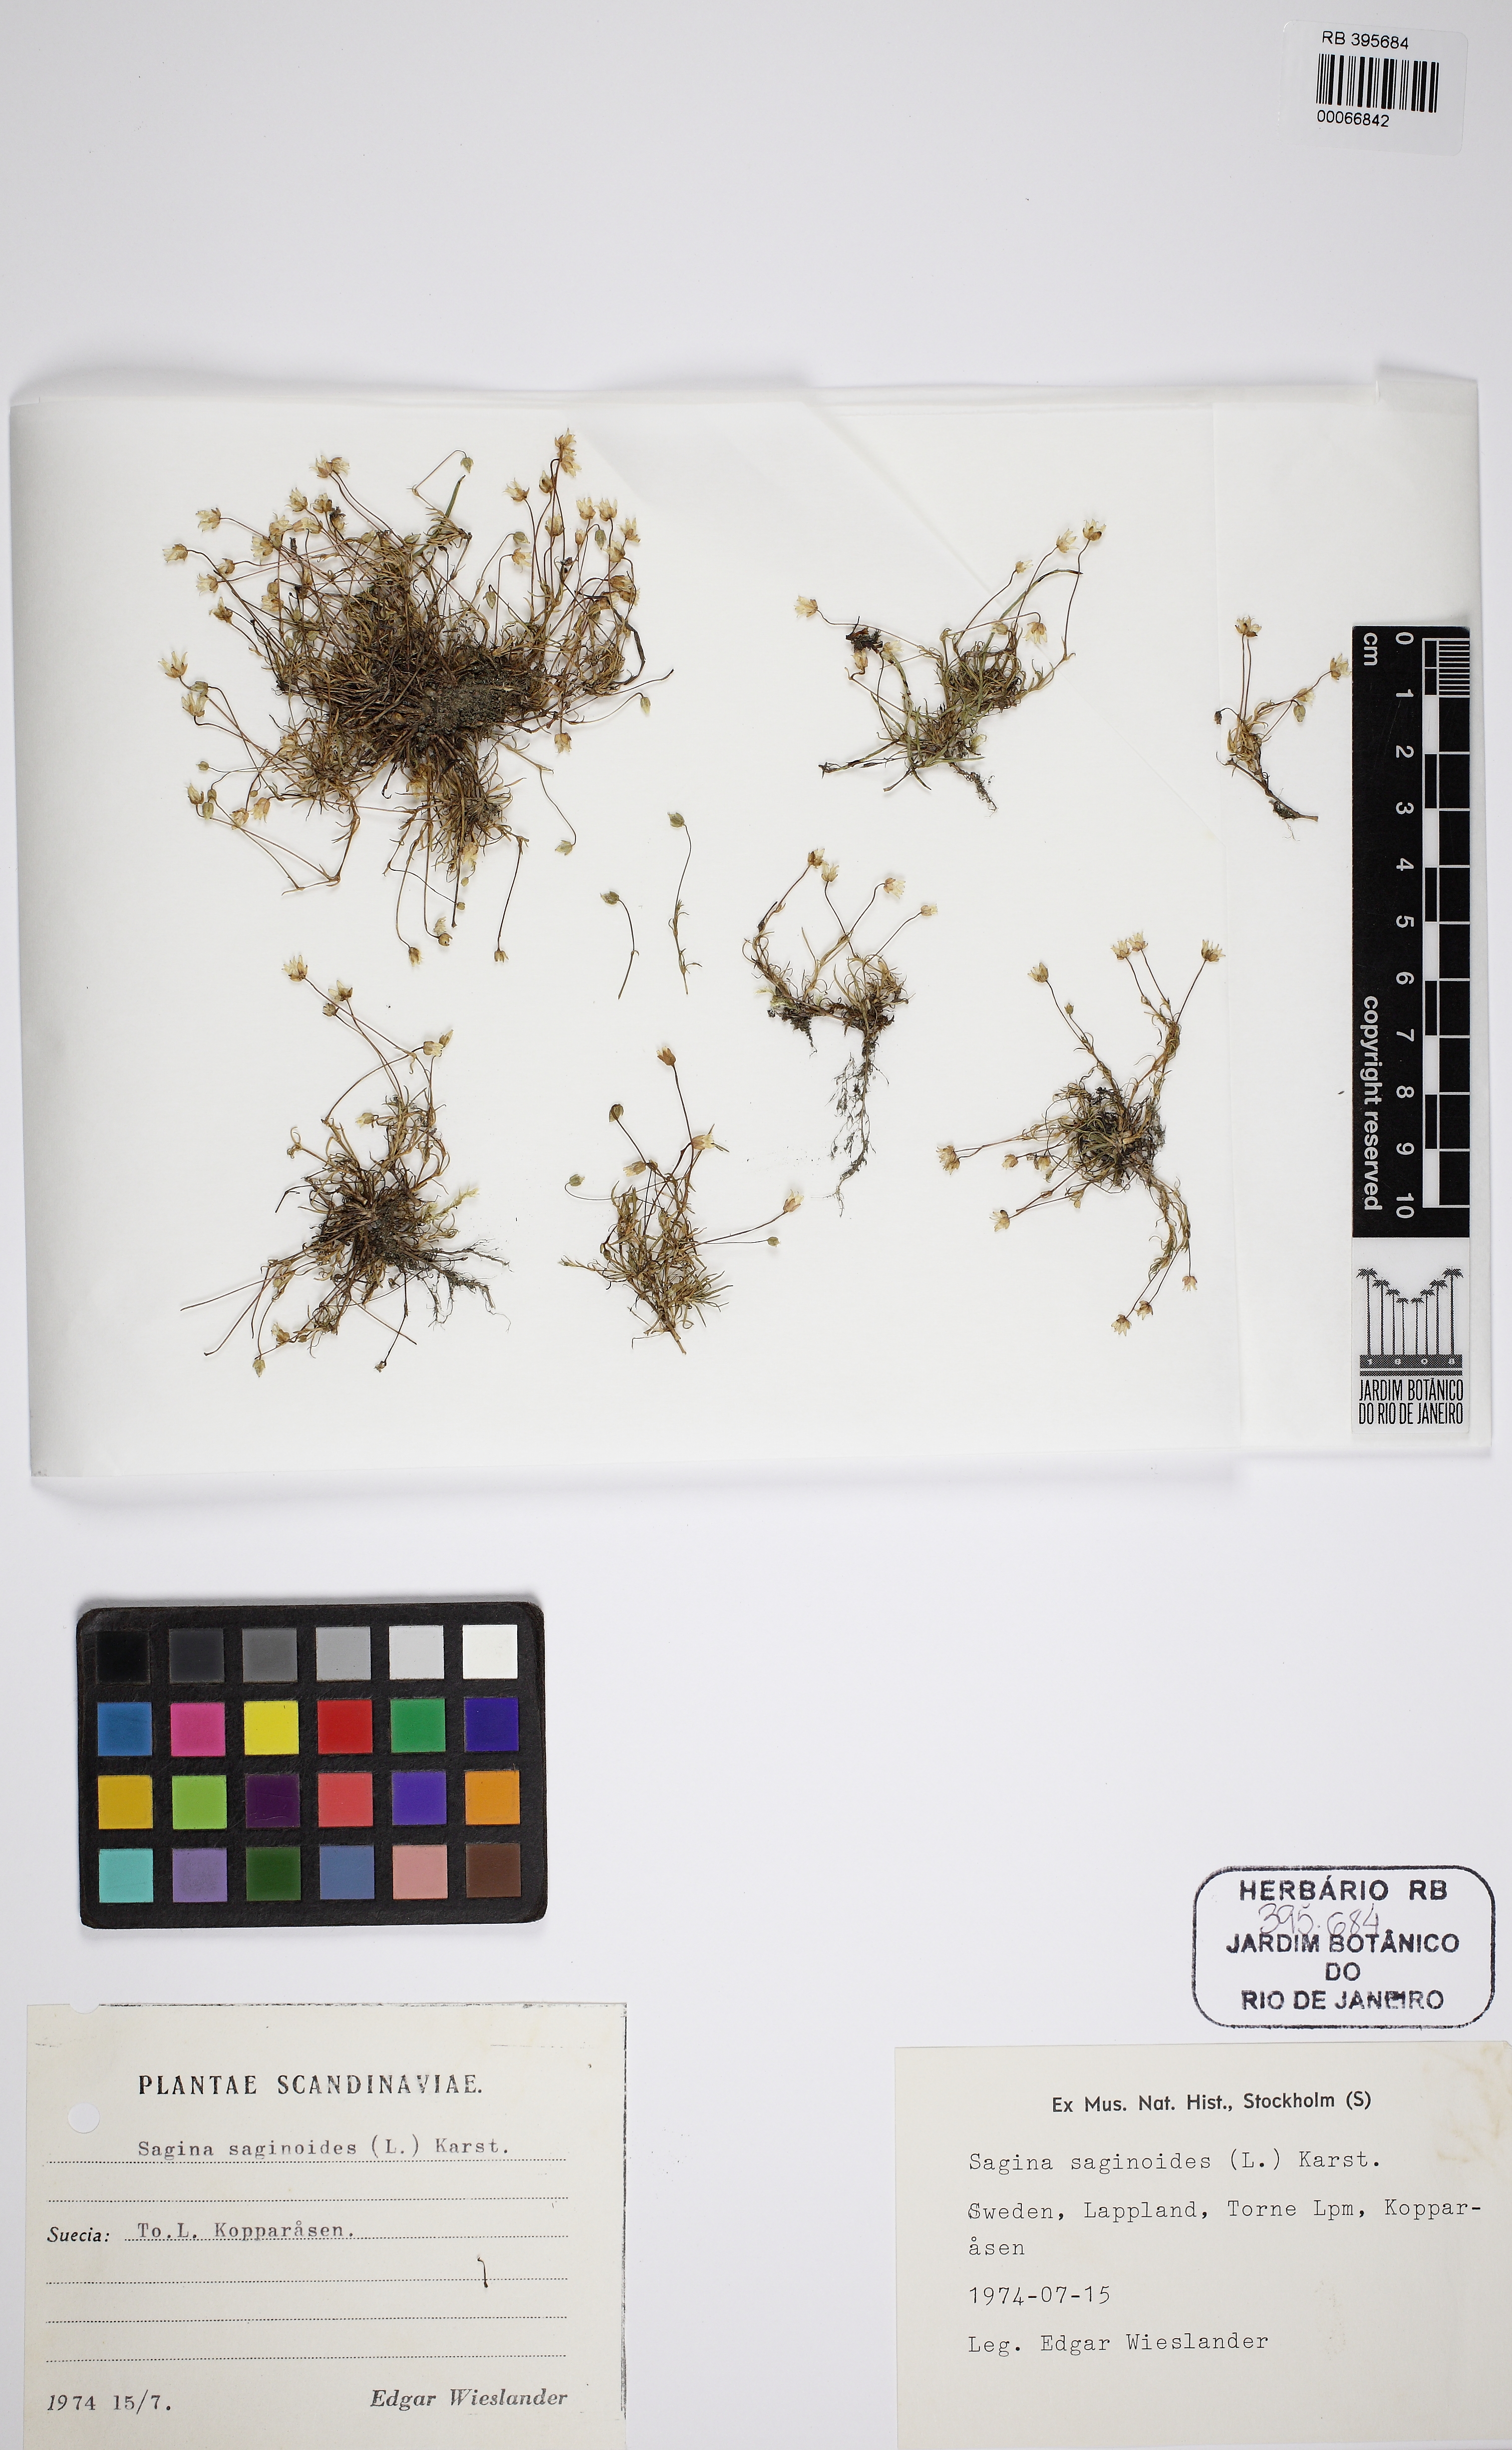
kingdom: Plantae
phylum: Tracheophyta
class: Magnoliopsida
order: Caryophyllales
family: Caryophyllaceae
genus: Sagina
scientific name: Sagina saginoides
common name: Alpine pearlwort
